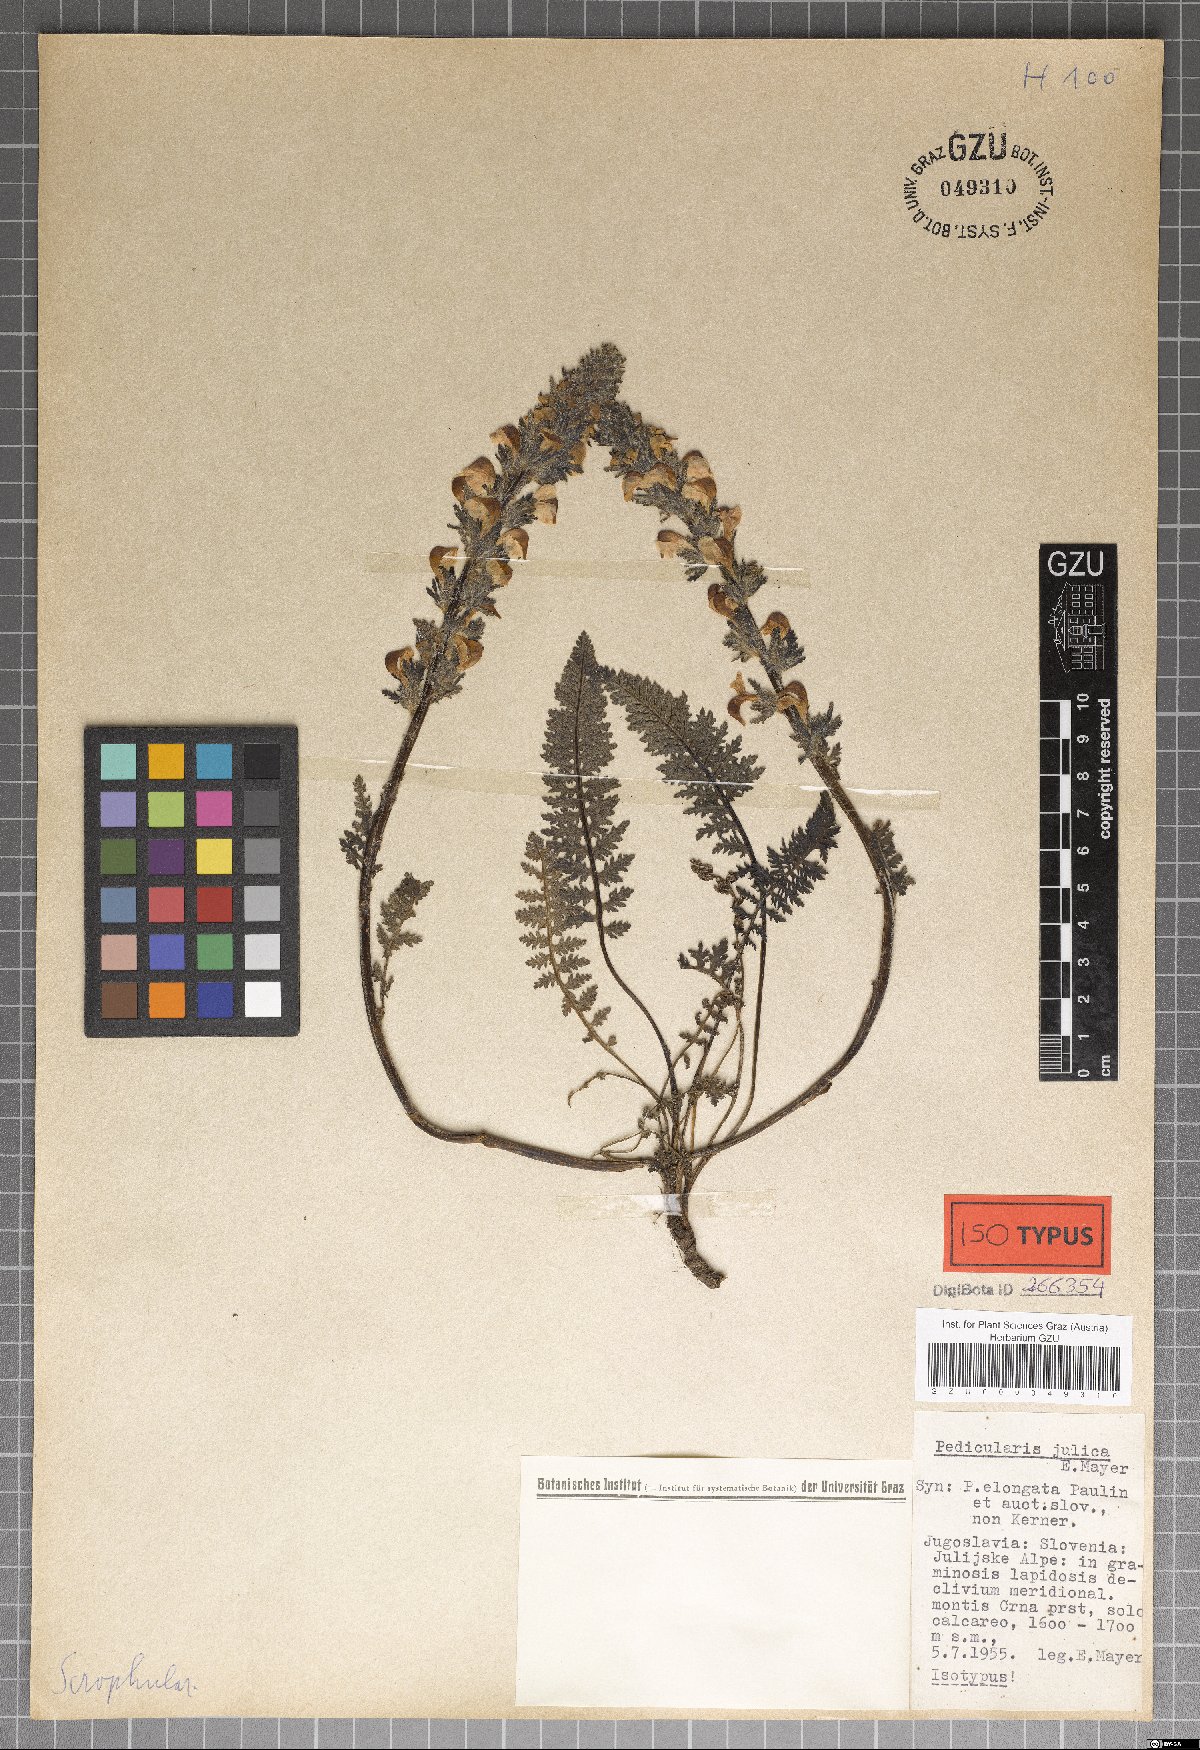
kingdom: Plantae
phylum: Tracheophyta
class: Magnoliopsida
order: Lamiales
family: Orobanchaceae
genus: Pedicularis
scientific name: Pedicularis julica
